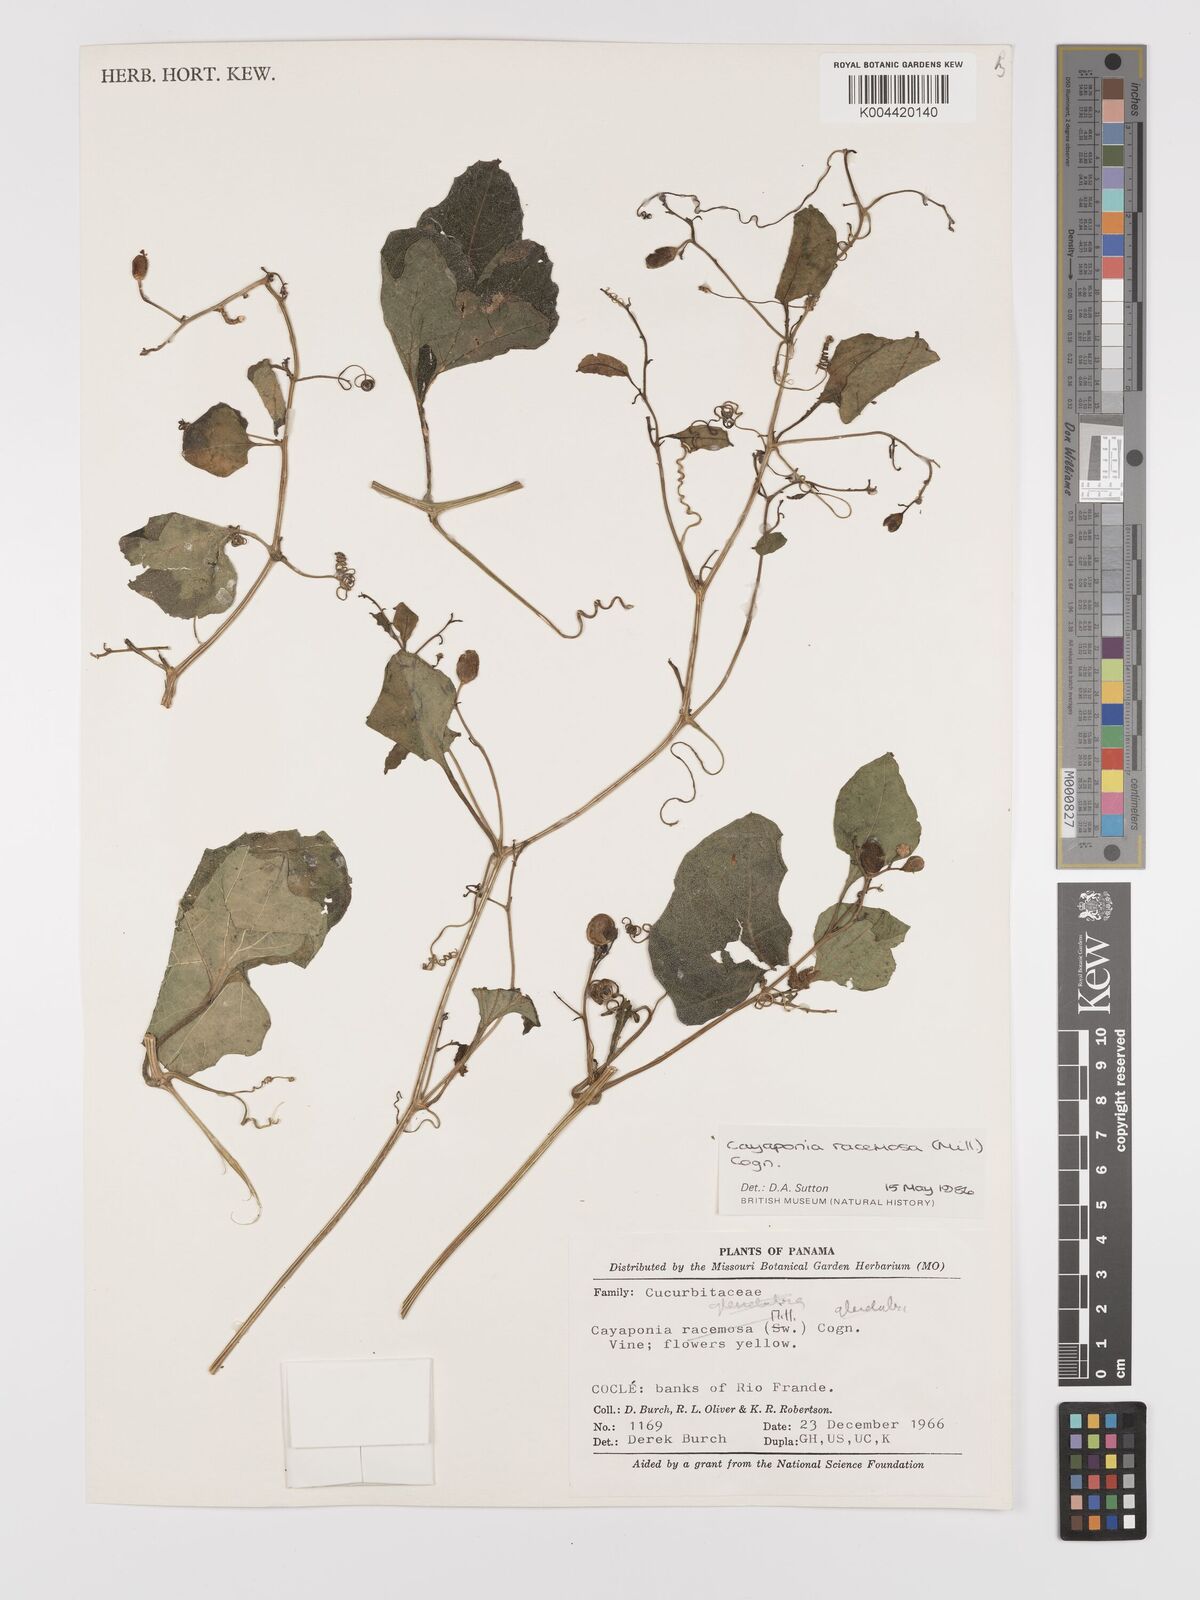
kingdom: Plantae
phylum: Tracheophyta
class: Magnoliopsida
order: Cucurbitales
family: Cucurbitaceae
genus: Cayaponia
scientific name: Cayaponia racemosa
